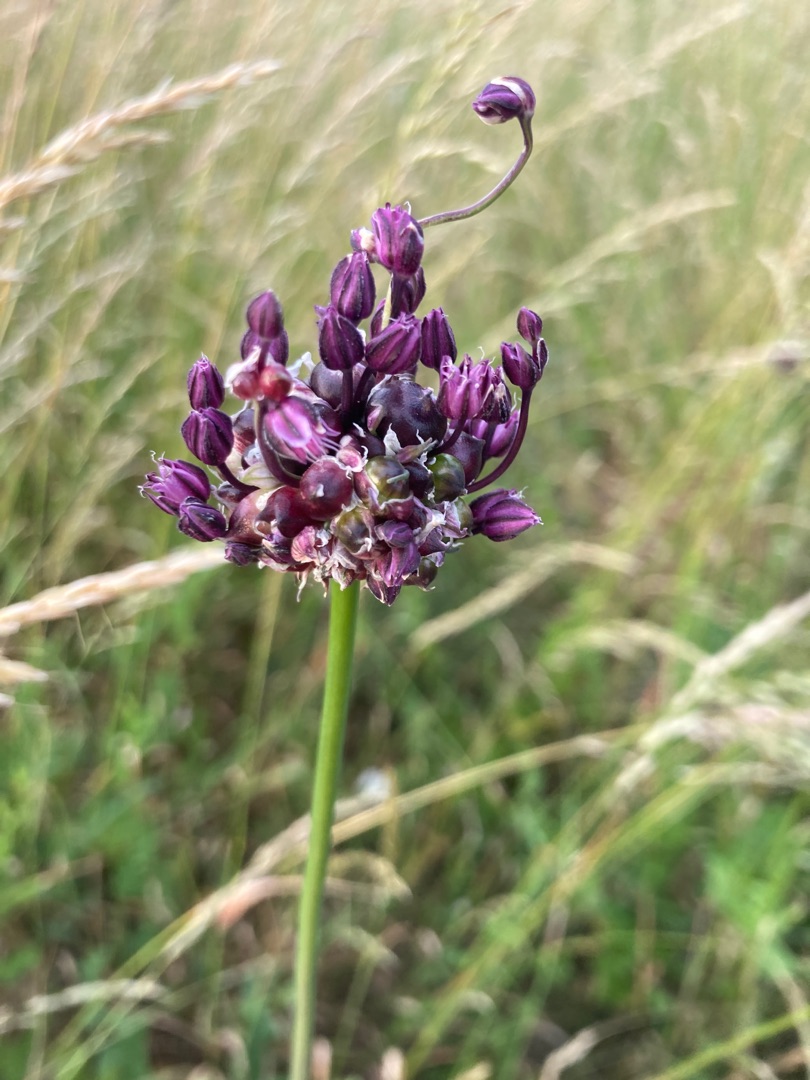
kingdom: Plantae
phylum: Tracheophyta
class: Liliopsida
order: Asparagales
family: Amaryllidaceae
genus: Allium
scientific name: Allium scorodoprasum
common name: Skov-løg
